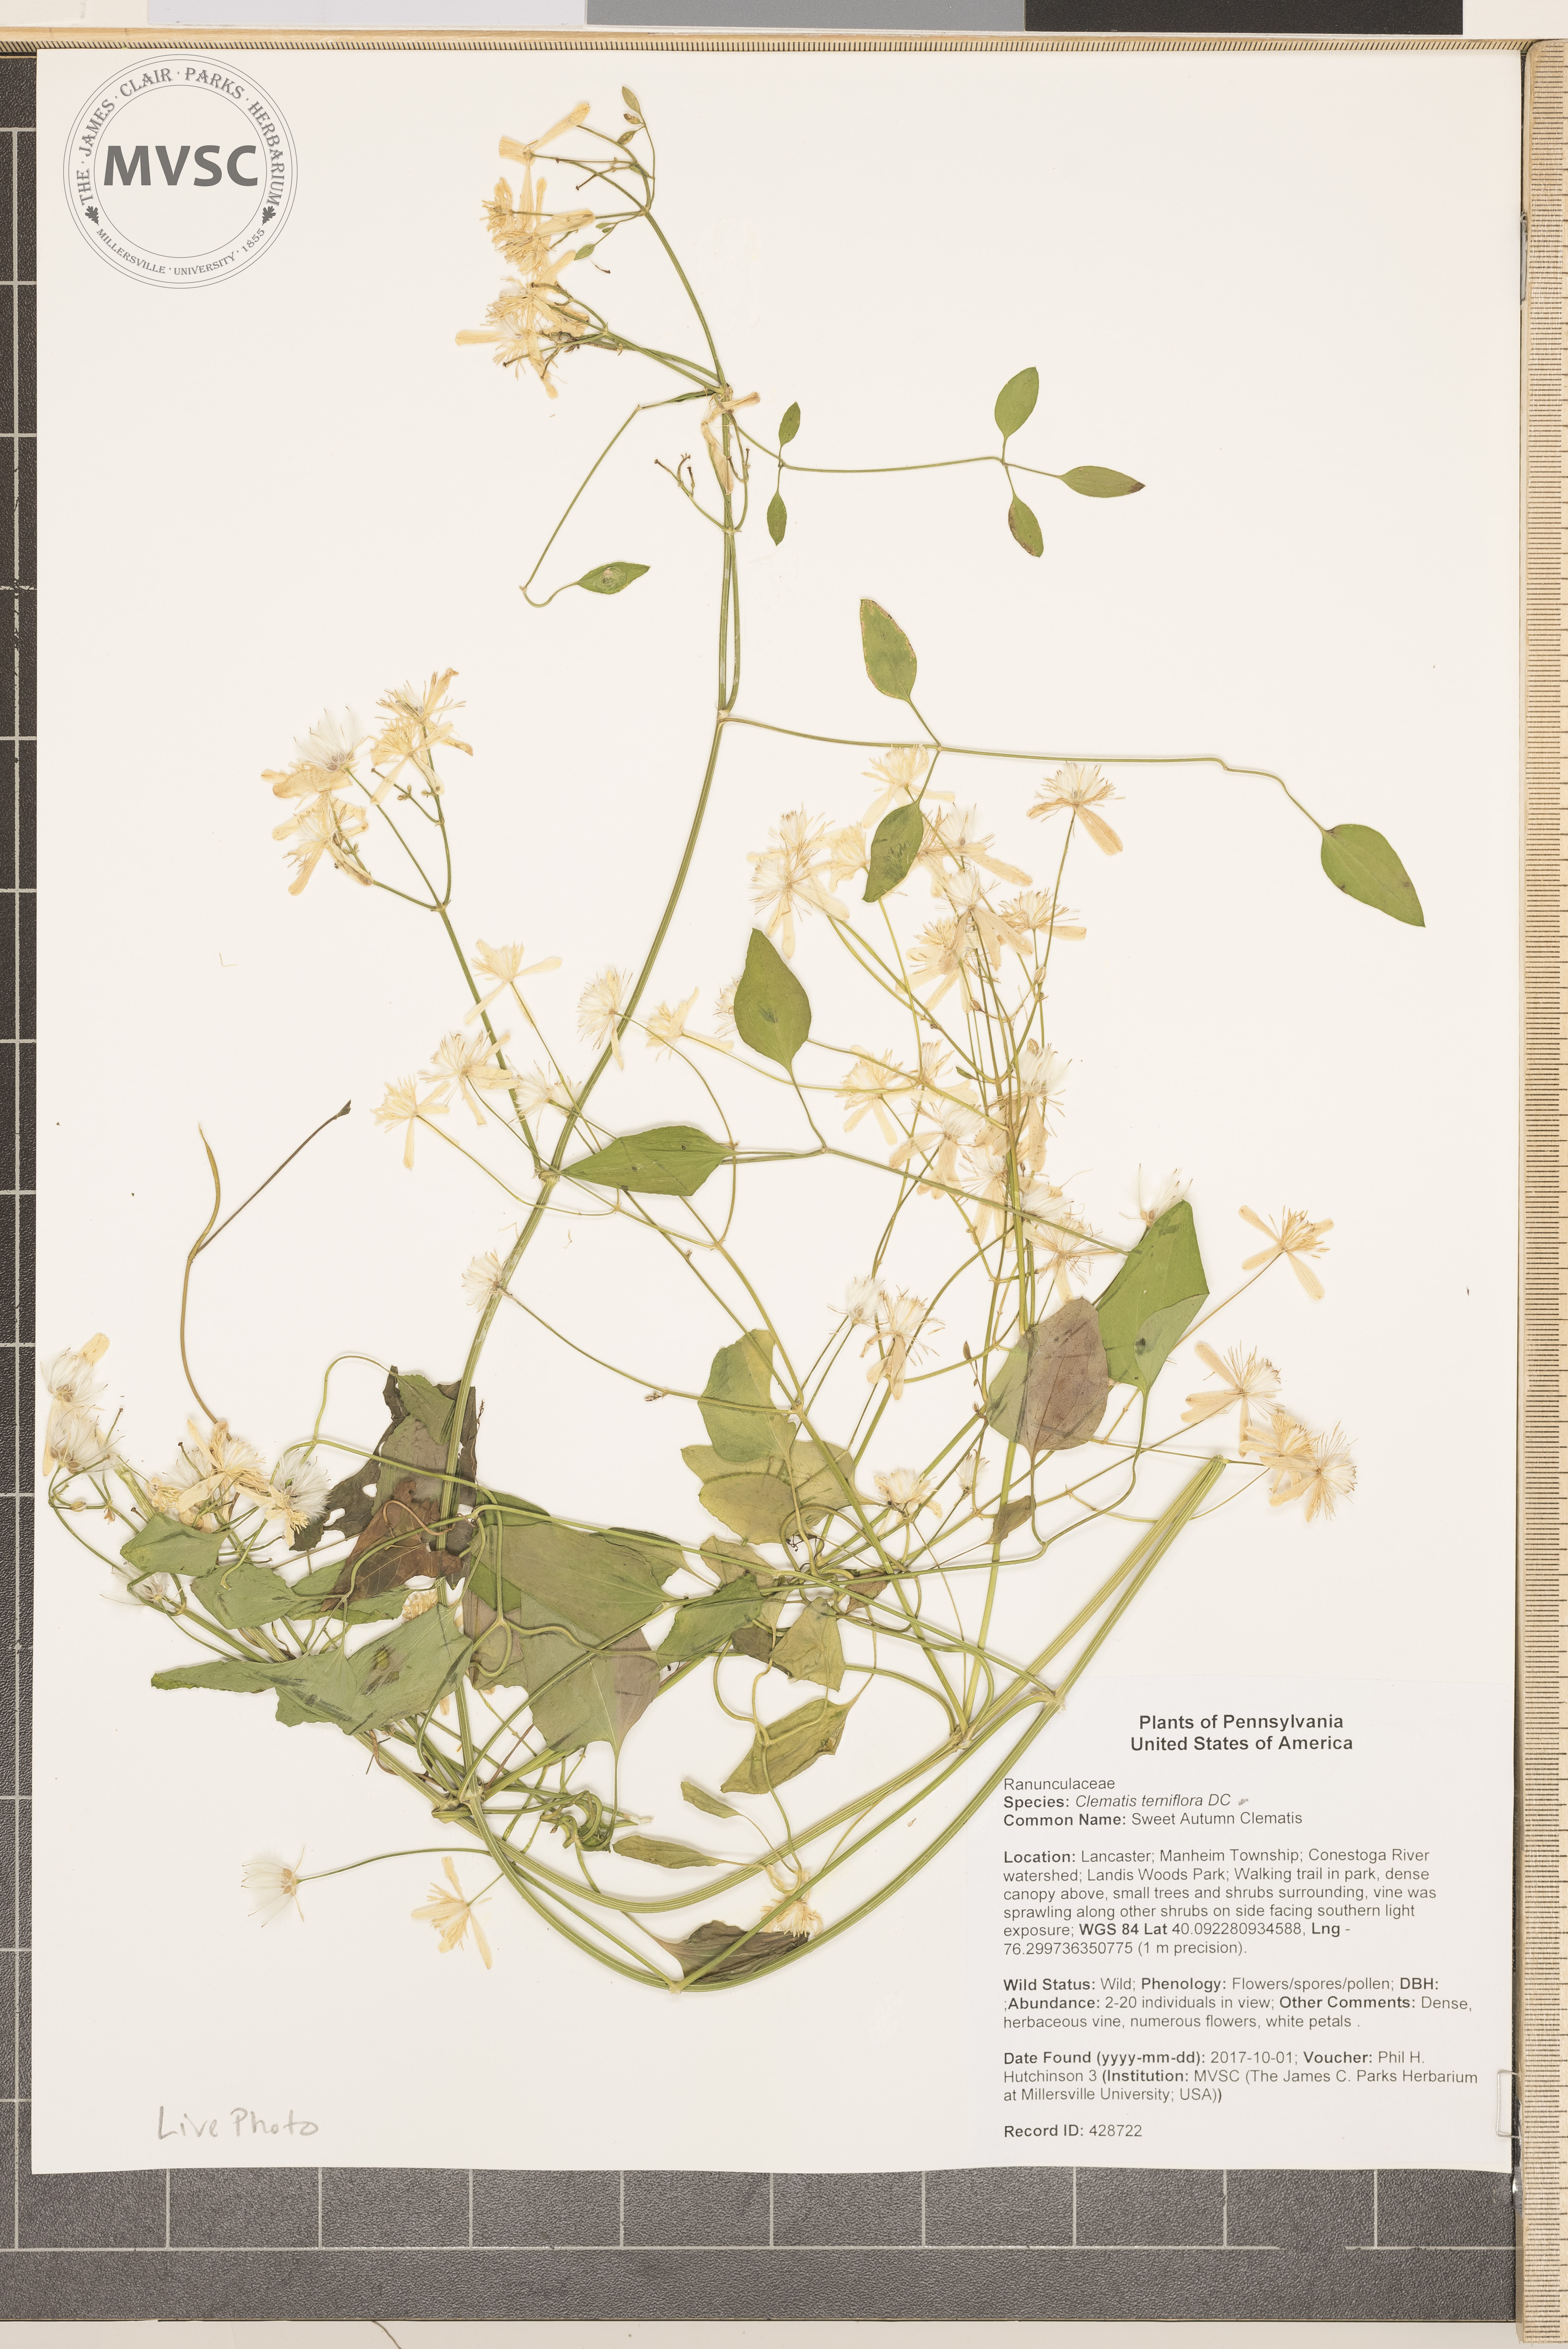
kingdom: Plantae
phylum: Tracheophyta
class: Magnoliopsida
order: Ranunculales
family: Ranunculaceae
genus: Clematis
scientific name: Clematis terniflora
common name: Sweet Autumn Clematis
